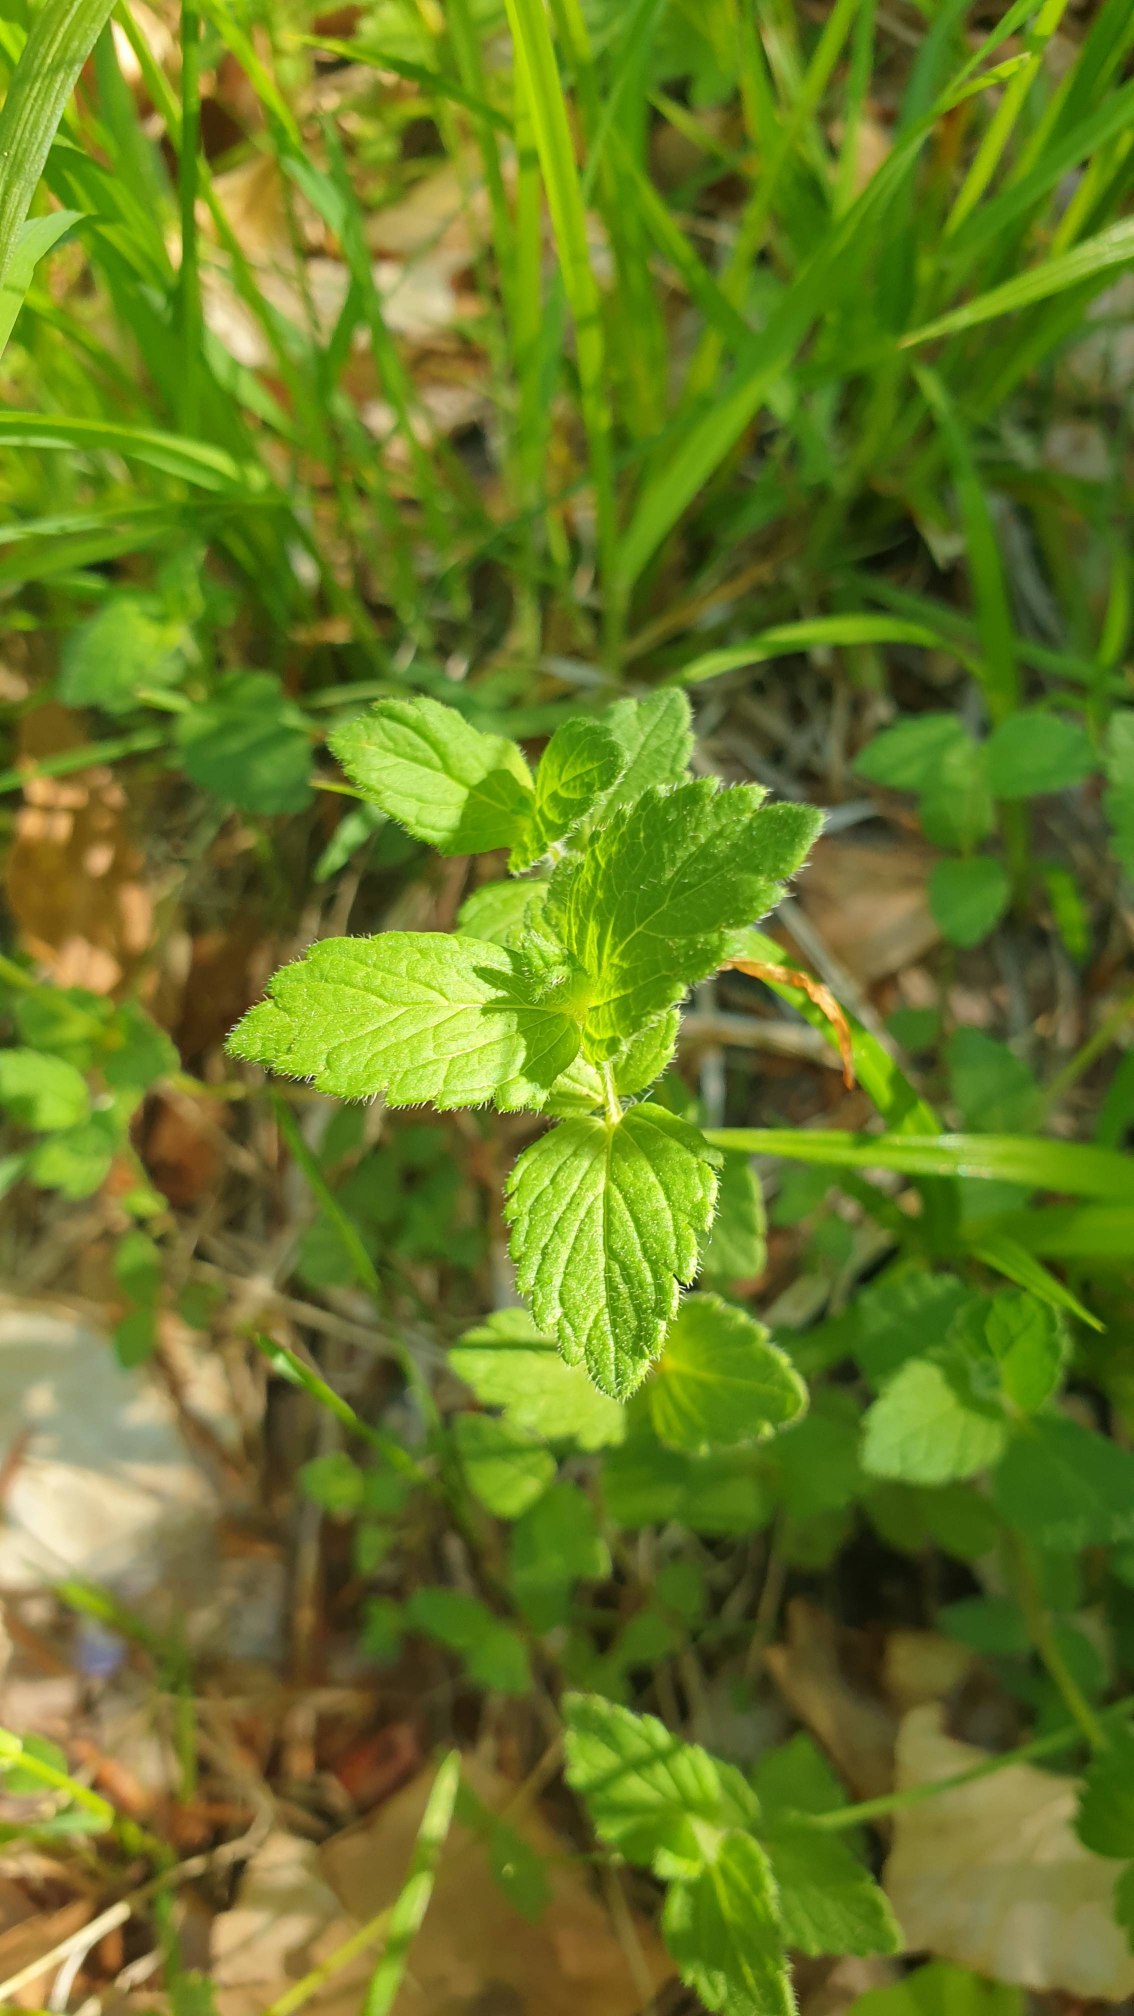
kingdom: Plantae
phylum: Tracheophyta
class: Magnoliopsida
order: Lamiales
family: Plantaginaceae
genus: Veronica
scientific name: Veronica chamaedrys
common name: Tveskægget ærenpris
